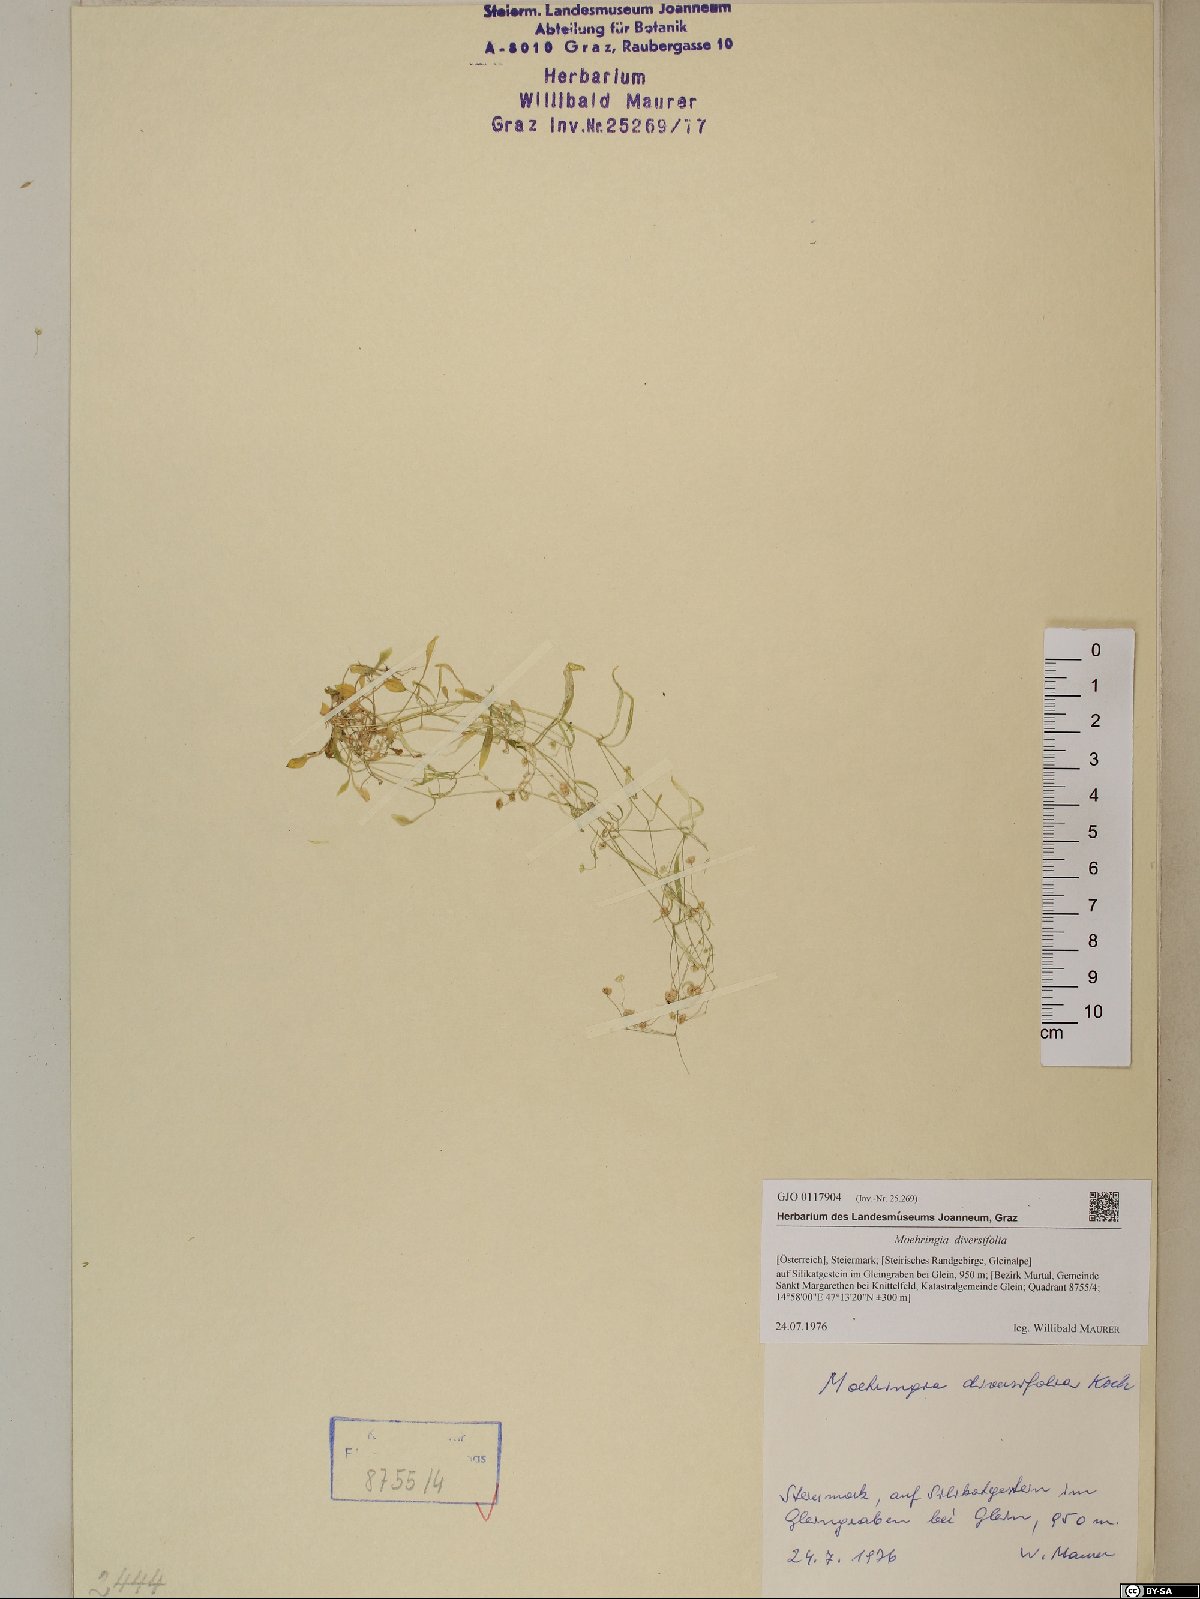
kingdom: Plantae
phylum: Tracheophyta
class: Magnoliopsida
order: Caryophyllales
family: Caryophyllaceae
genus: Moehringia
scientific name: Moehringia diversifolia
